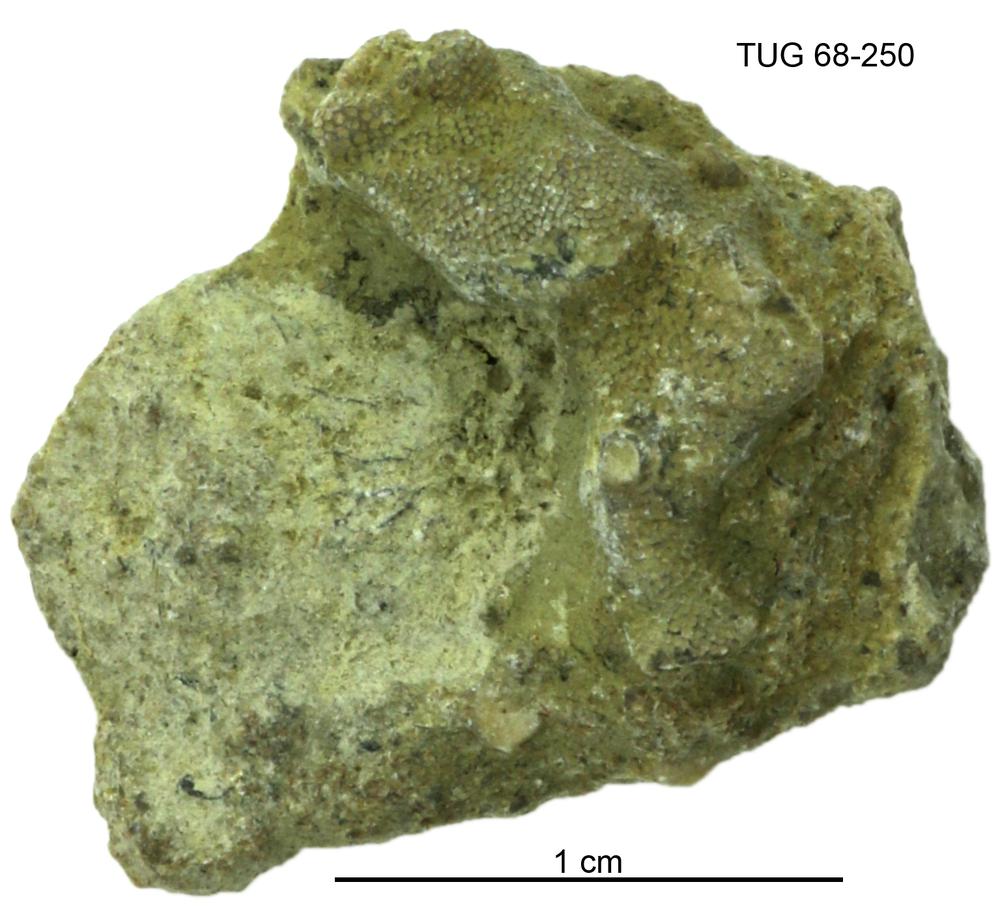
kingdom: Animalia
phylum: Bryozoa
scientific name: Bryozoa
